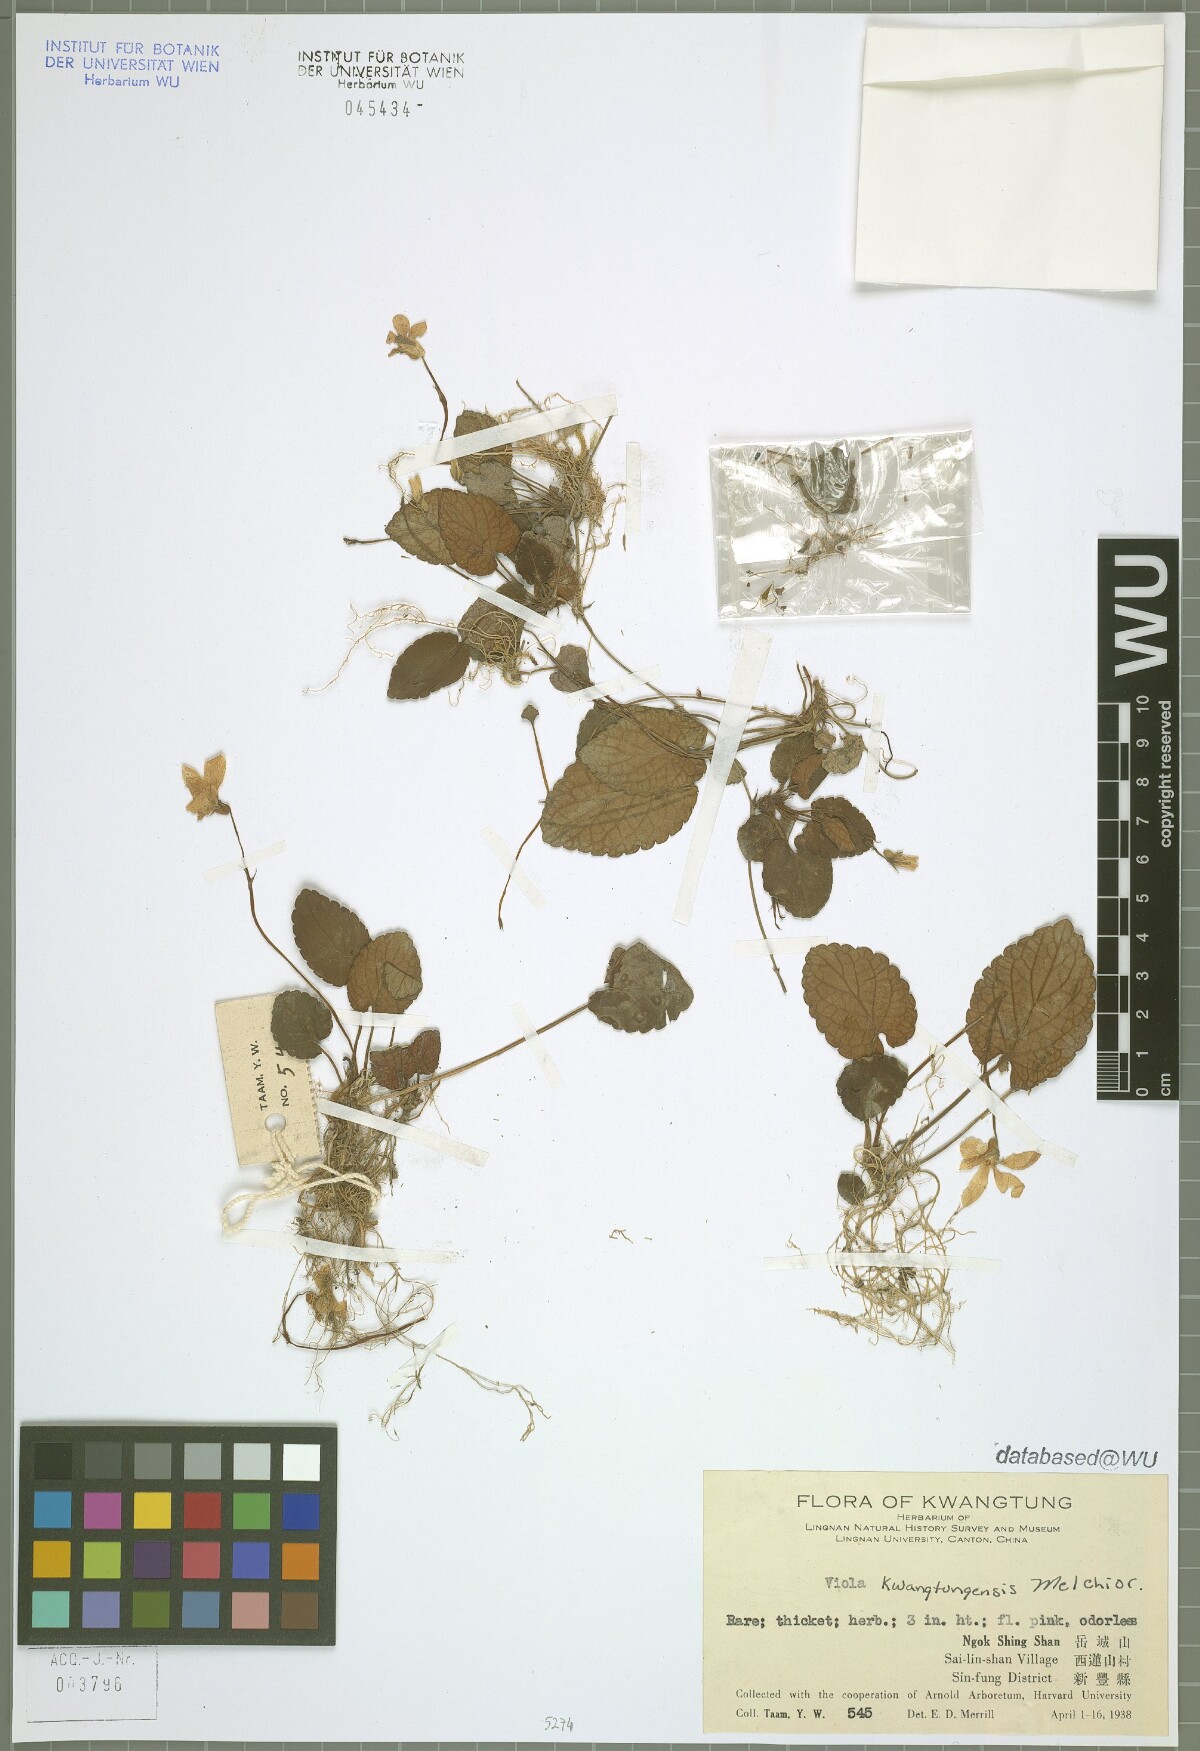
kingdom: Plantae
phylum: Tracheophyta
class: Magnoliopsida
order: Malpighiales
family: Violaceae
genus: Viola
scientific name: Viola kwangtungensis
